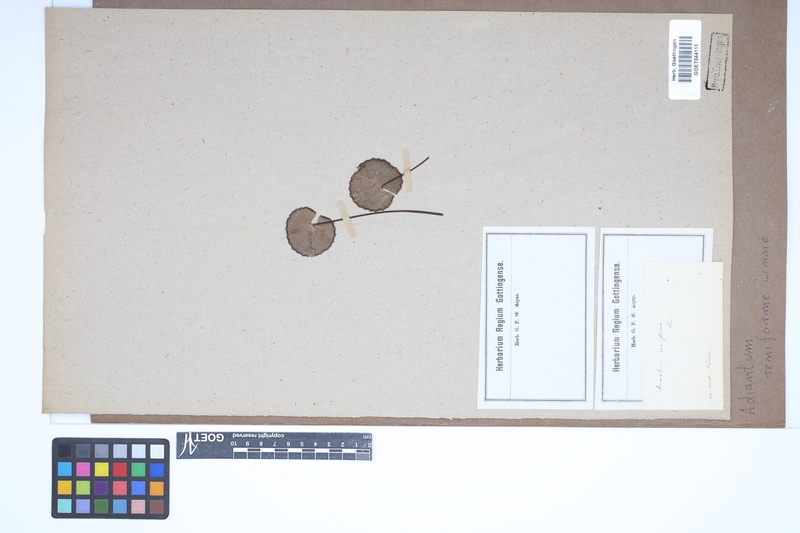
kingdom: Plantae
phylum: Tracheophyta
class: Polypodiopsida
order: Polypodiales
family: Pteridaceae
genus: Adiantum
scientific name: Adiantum reniforme
